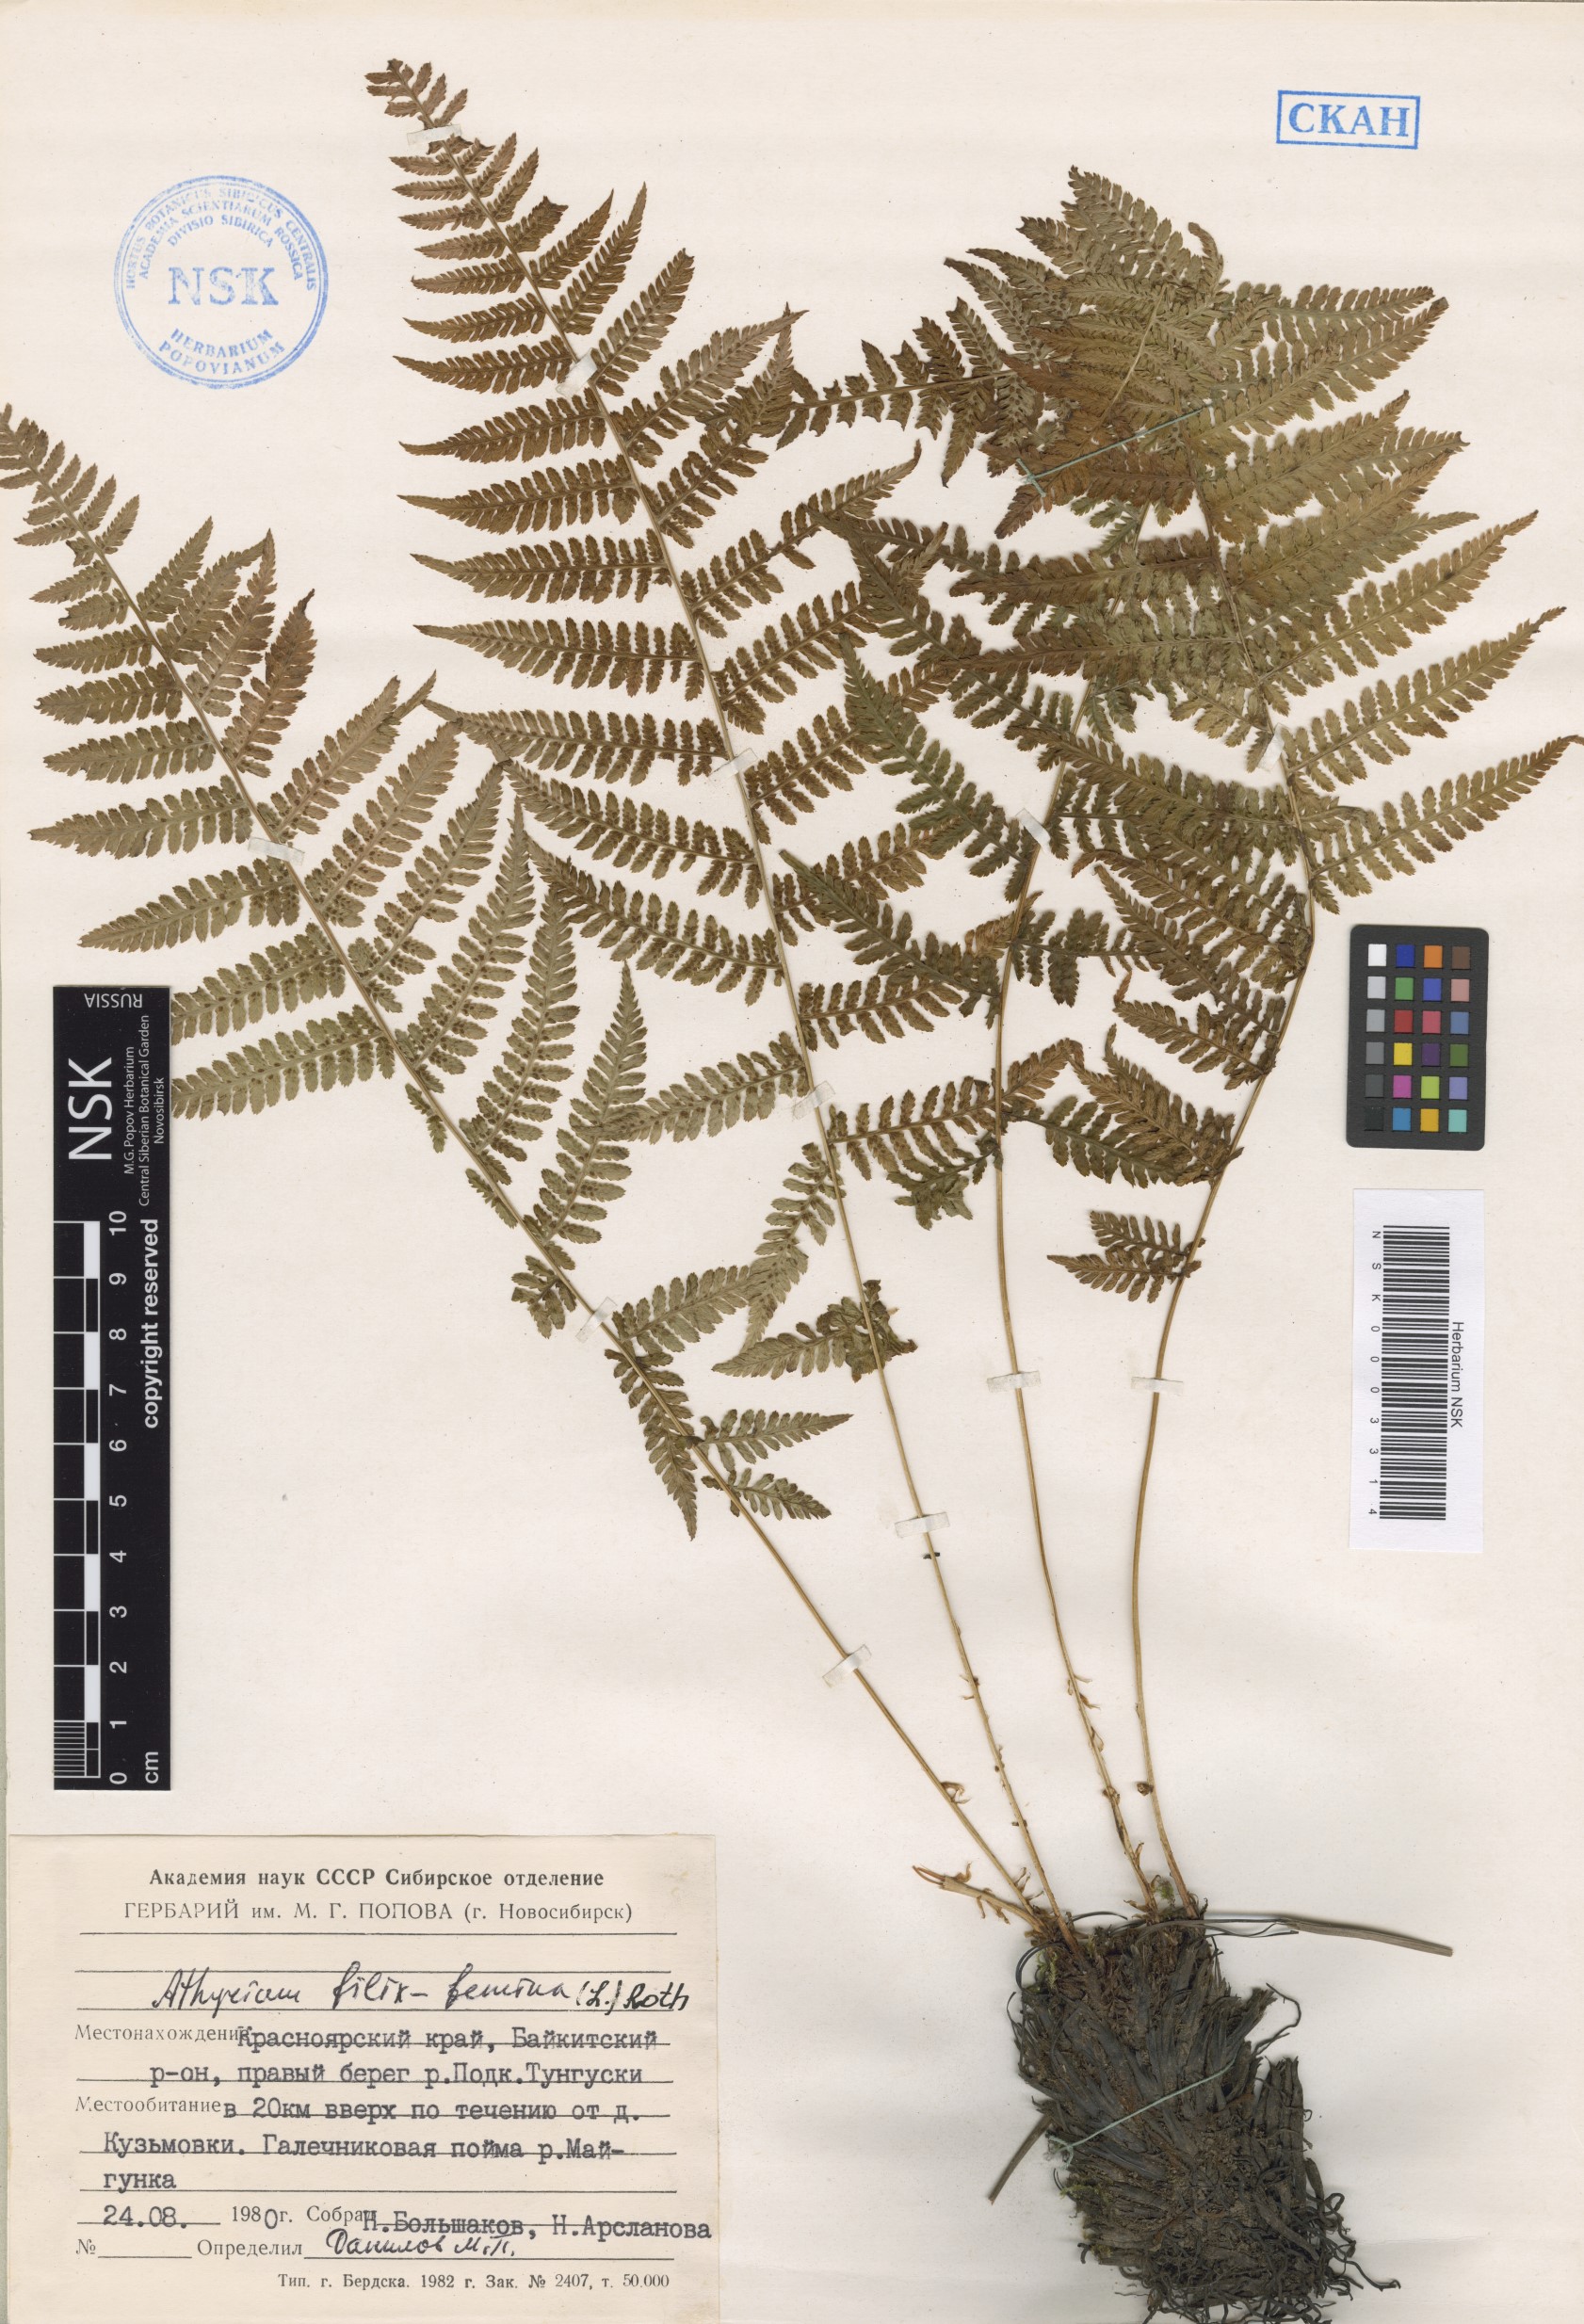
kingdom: Plantae
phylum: Tracheophyta
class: Polypodiopsida
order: Polypodiales
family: Athyriaceae
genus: Athyrium
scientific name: Athyrium filix-femina
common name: Lady fern
